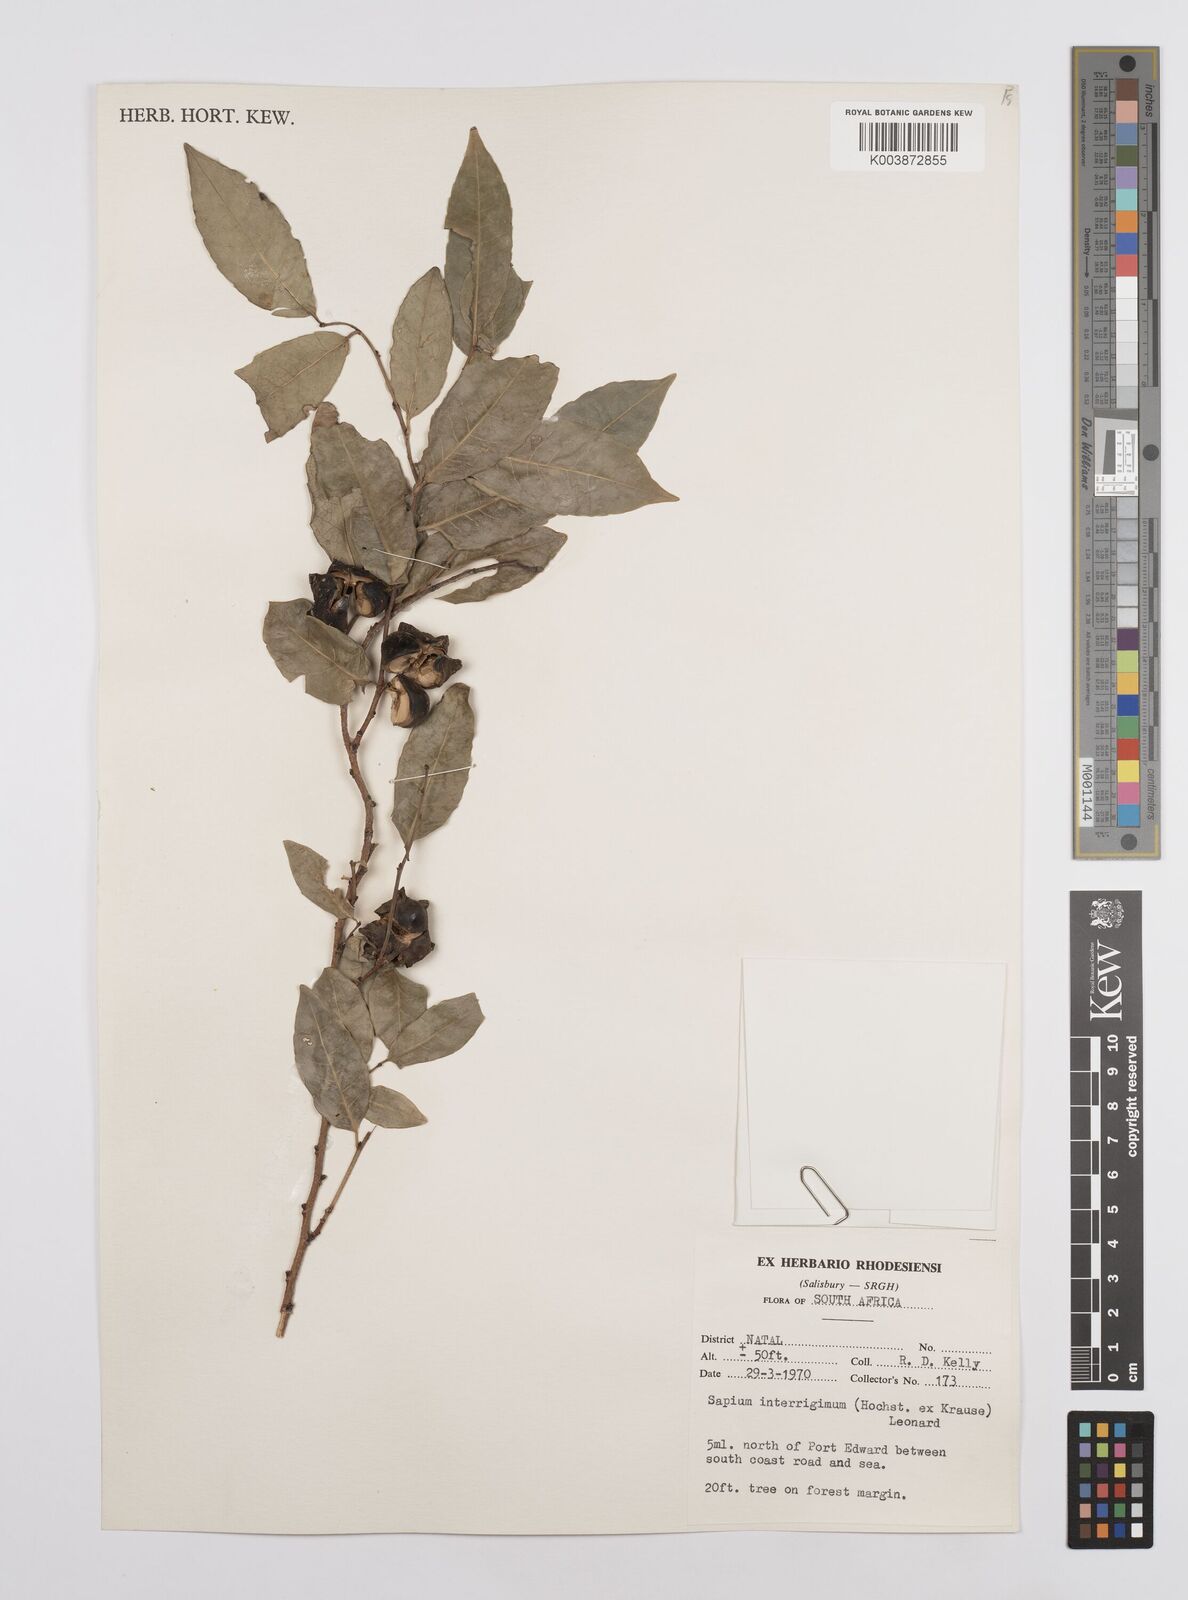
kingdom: Plantae
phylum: Tracheophyta
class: Magnoliopsida
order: Malpighiales
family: Euphorbiaceae
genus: Sclerocroton
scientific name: Sclerocroton integerrimus
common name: Duiker berry
